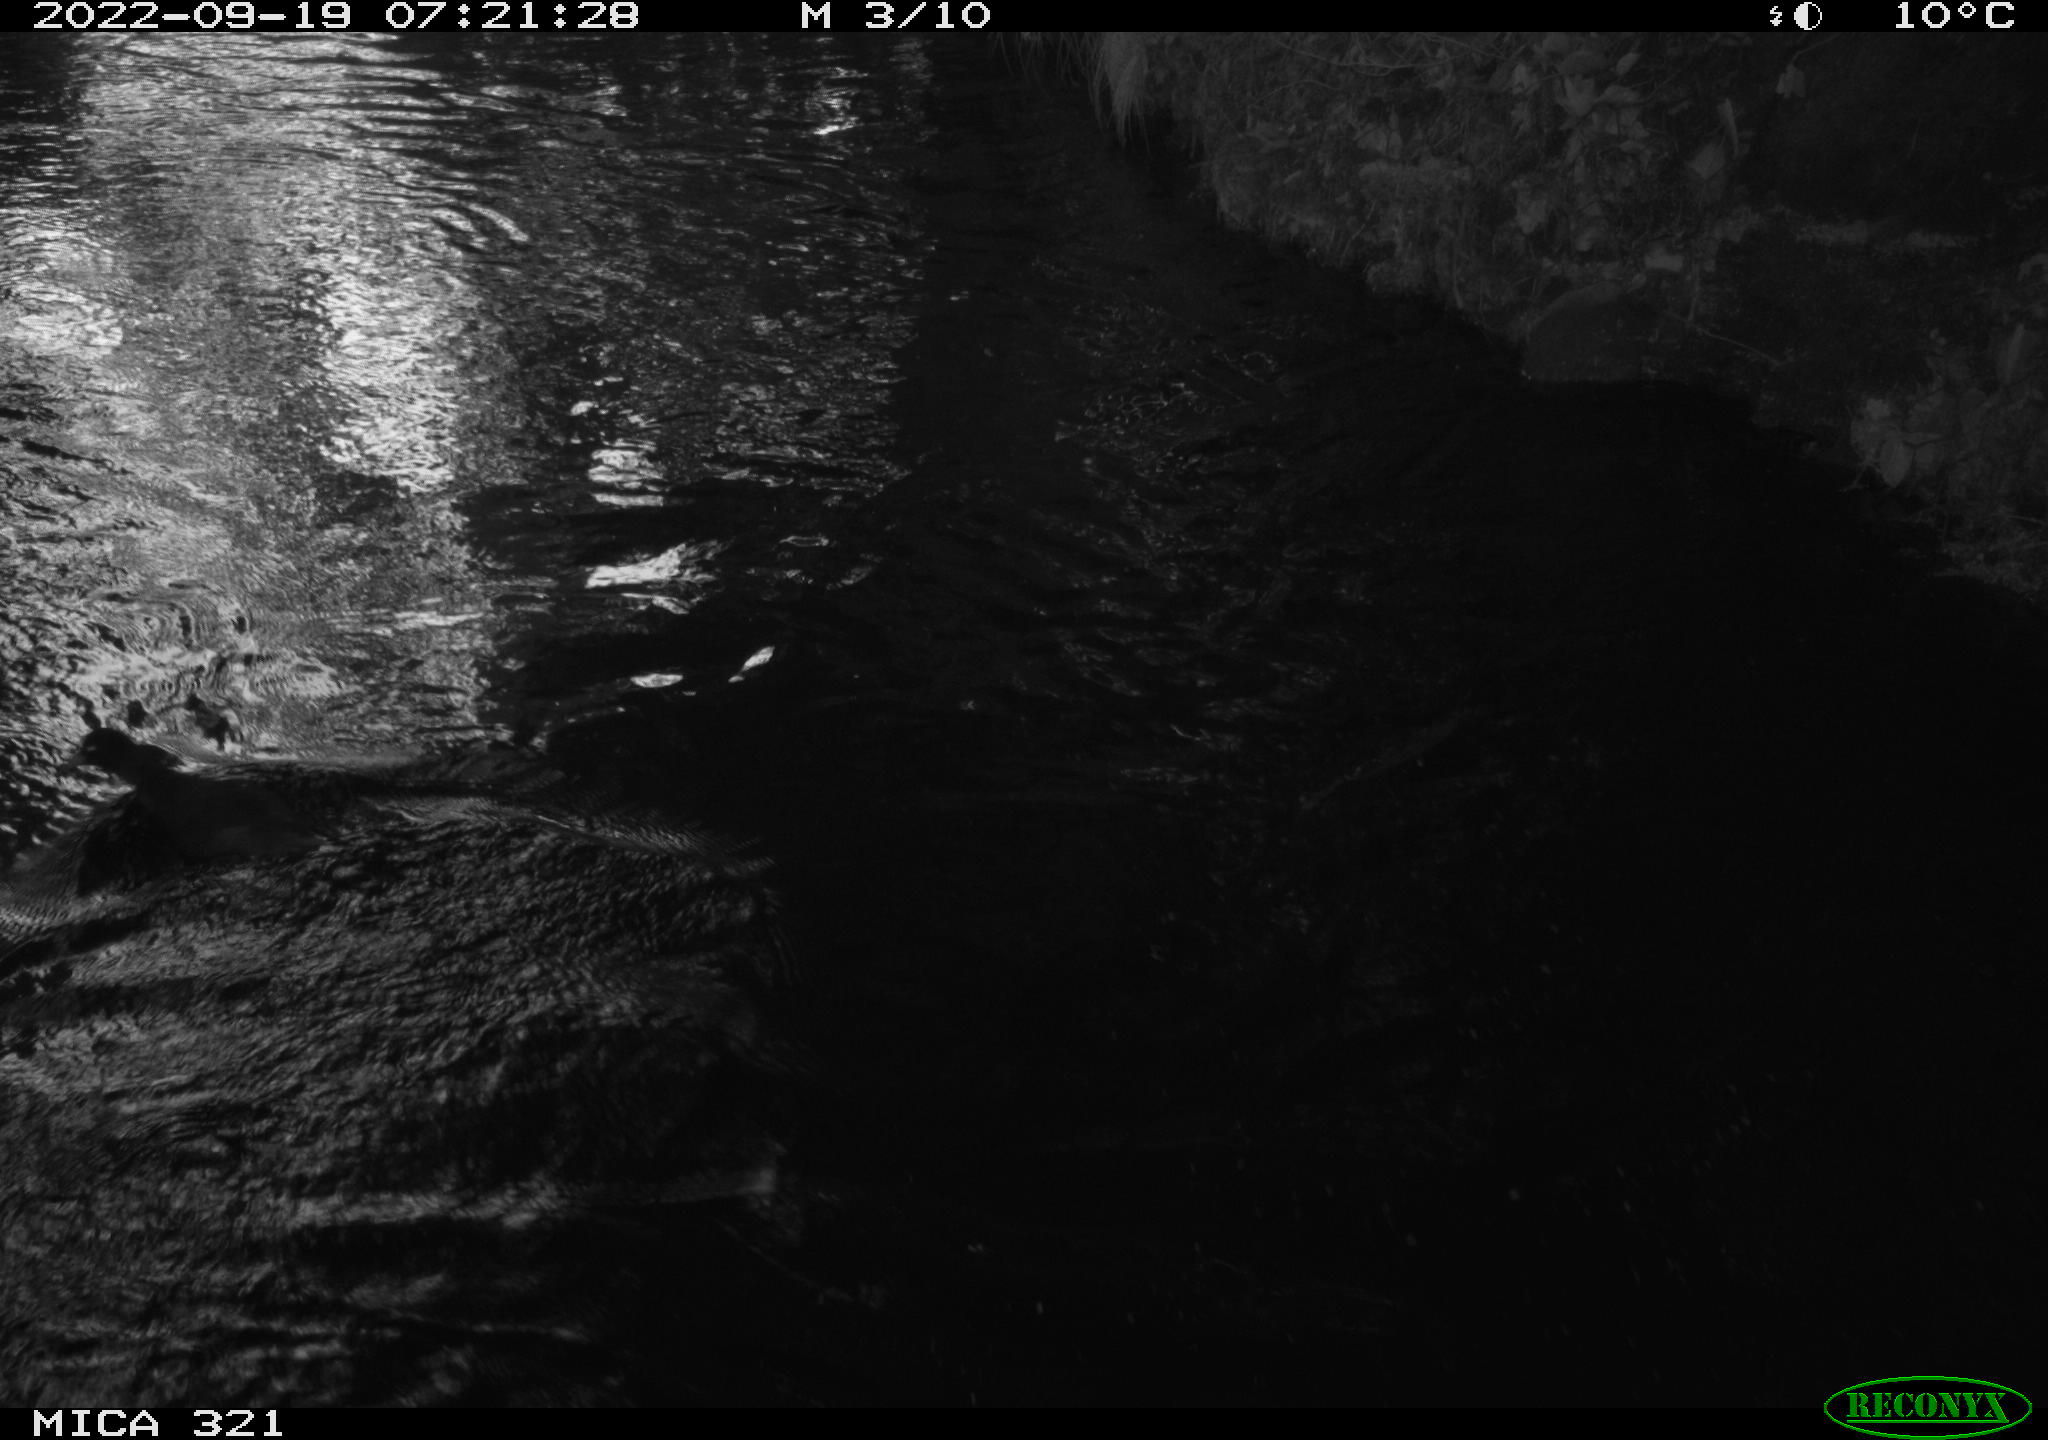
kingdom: Animalia
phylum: Chordata
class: Aves
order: Gruiformes
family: Rallidae
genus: Fulica
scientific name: Fulica atra
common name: Eurasian coot
